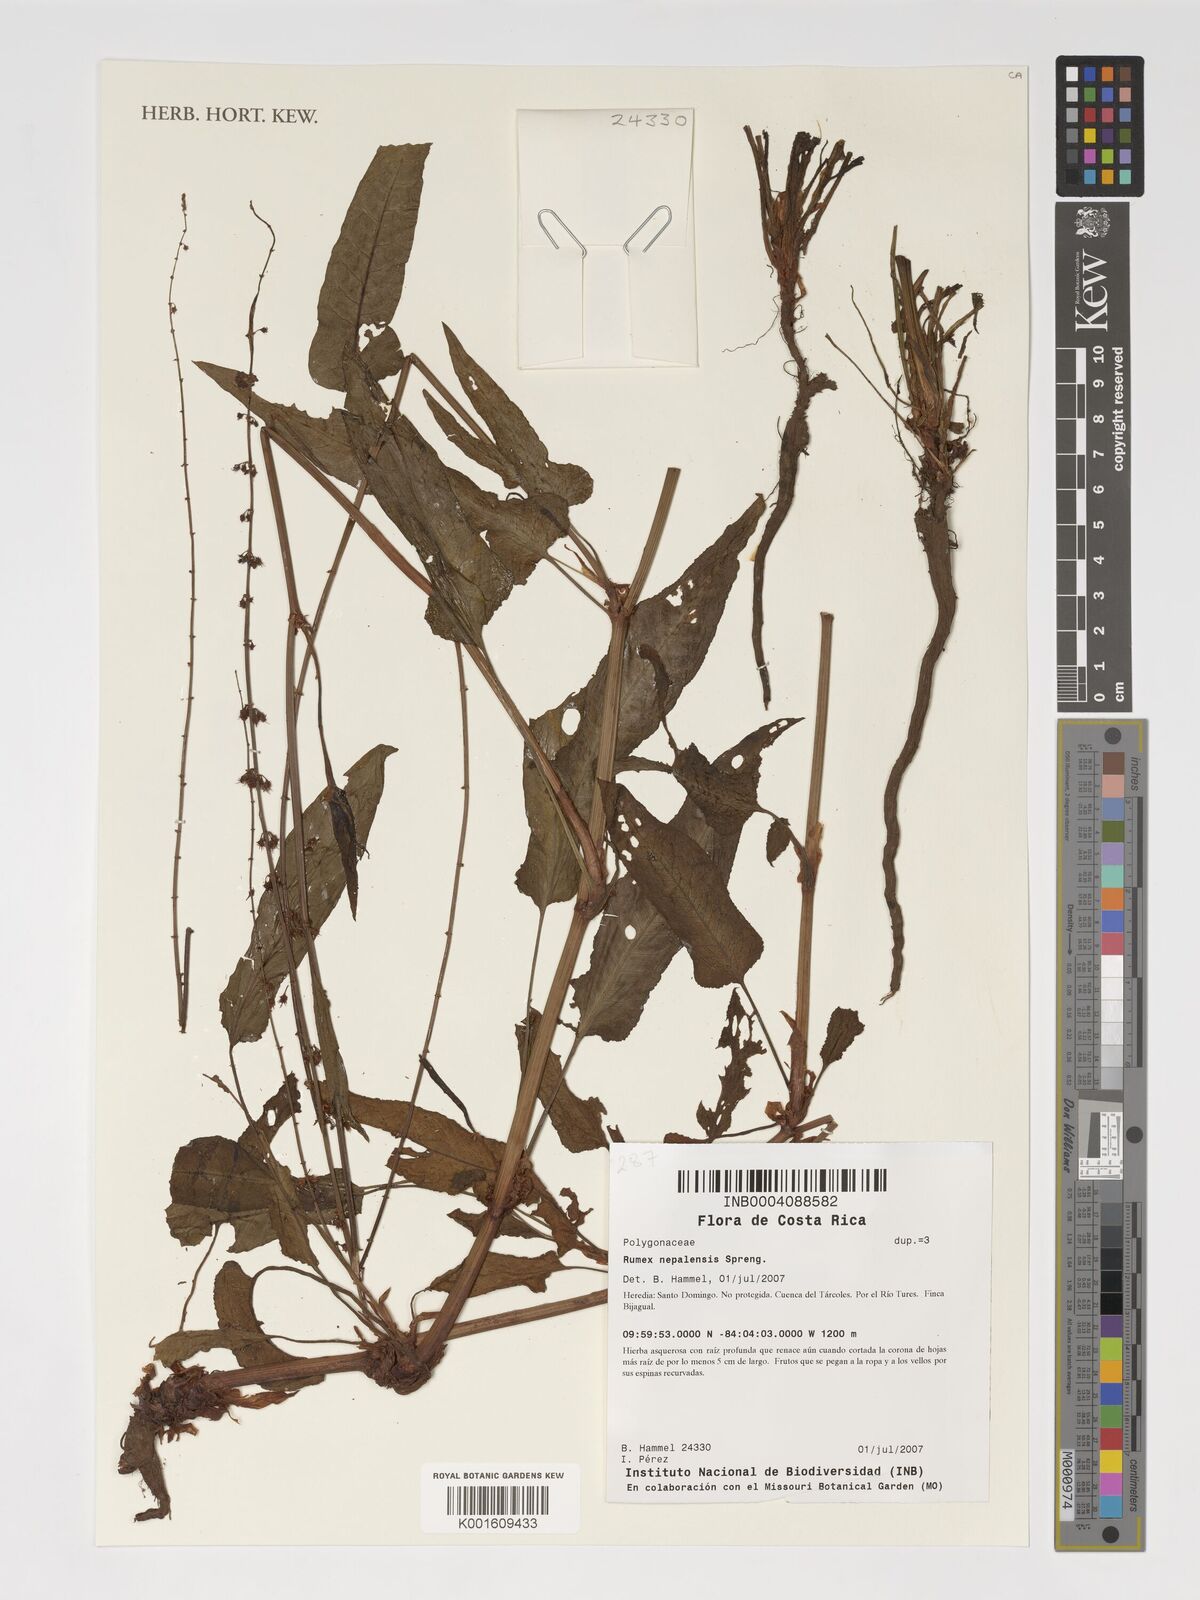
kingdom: Plantae
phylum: Tracheophyta
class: Magnoliopsida
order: Caryophyllales
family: Polygonaceae
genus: Rumex
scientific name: Rumex nepalensis
